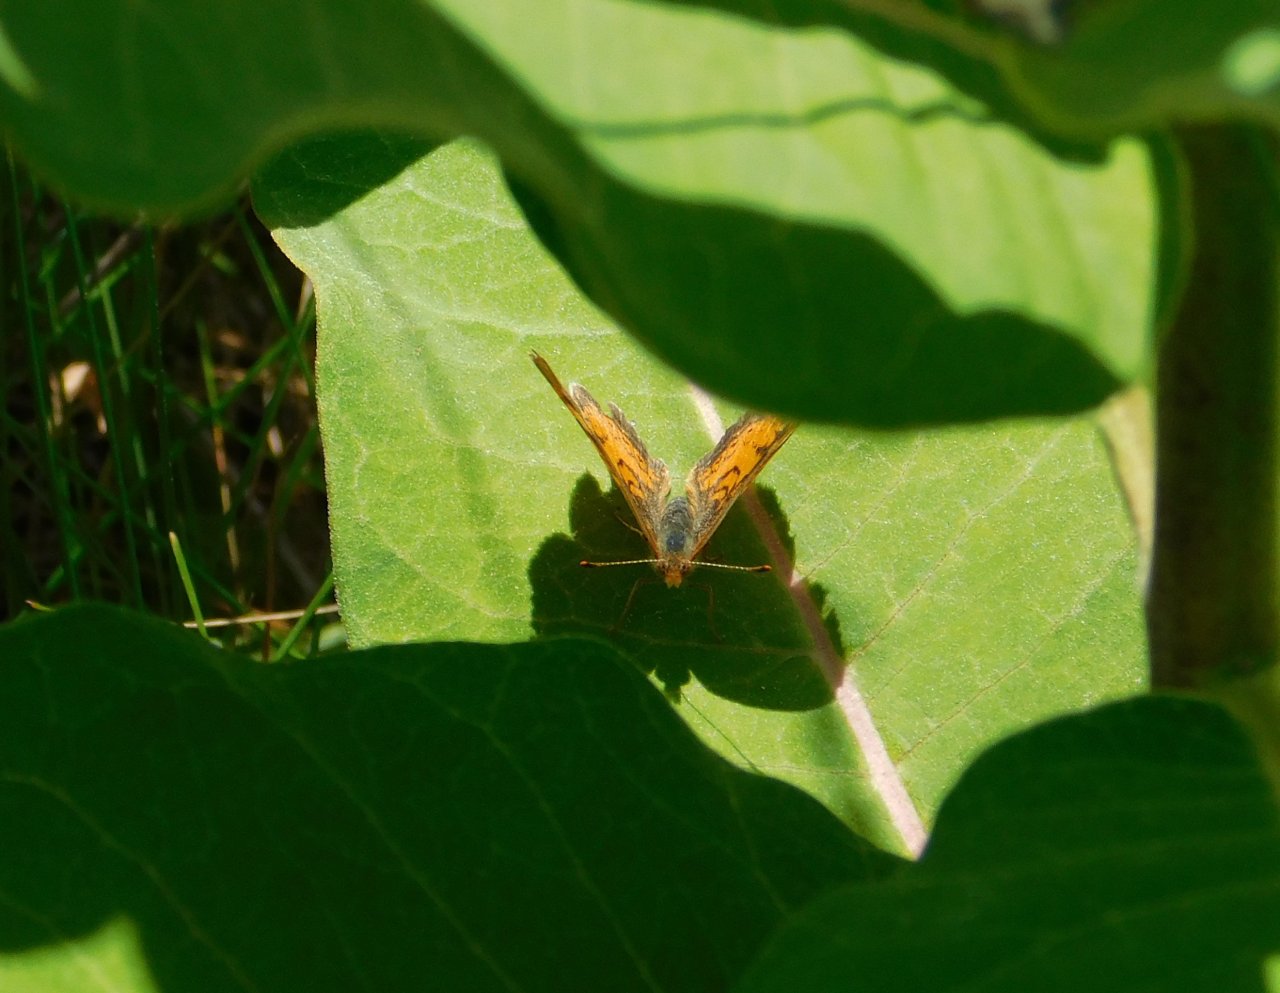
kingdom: Animalia
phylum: Arthropoda
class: Insecta
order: Lepidoptera
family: Nymphalidae
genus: Phyciodes
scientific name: Phyciodes tharos
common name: Northern Crescent
